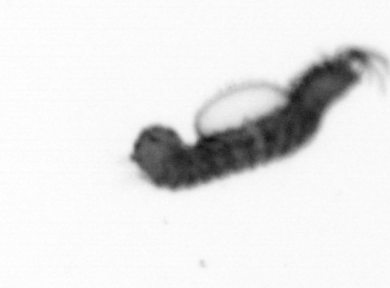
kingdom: Animalia
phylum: Annelida
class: Polychaeta
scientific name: Polychaeta
